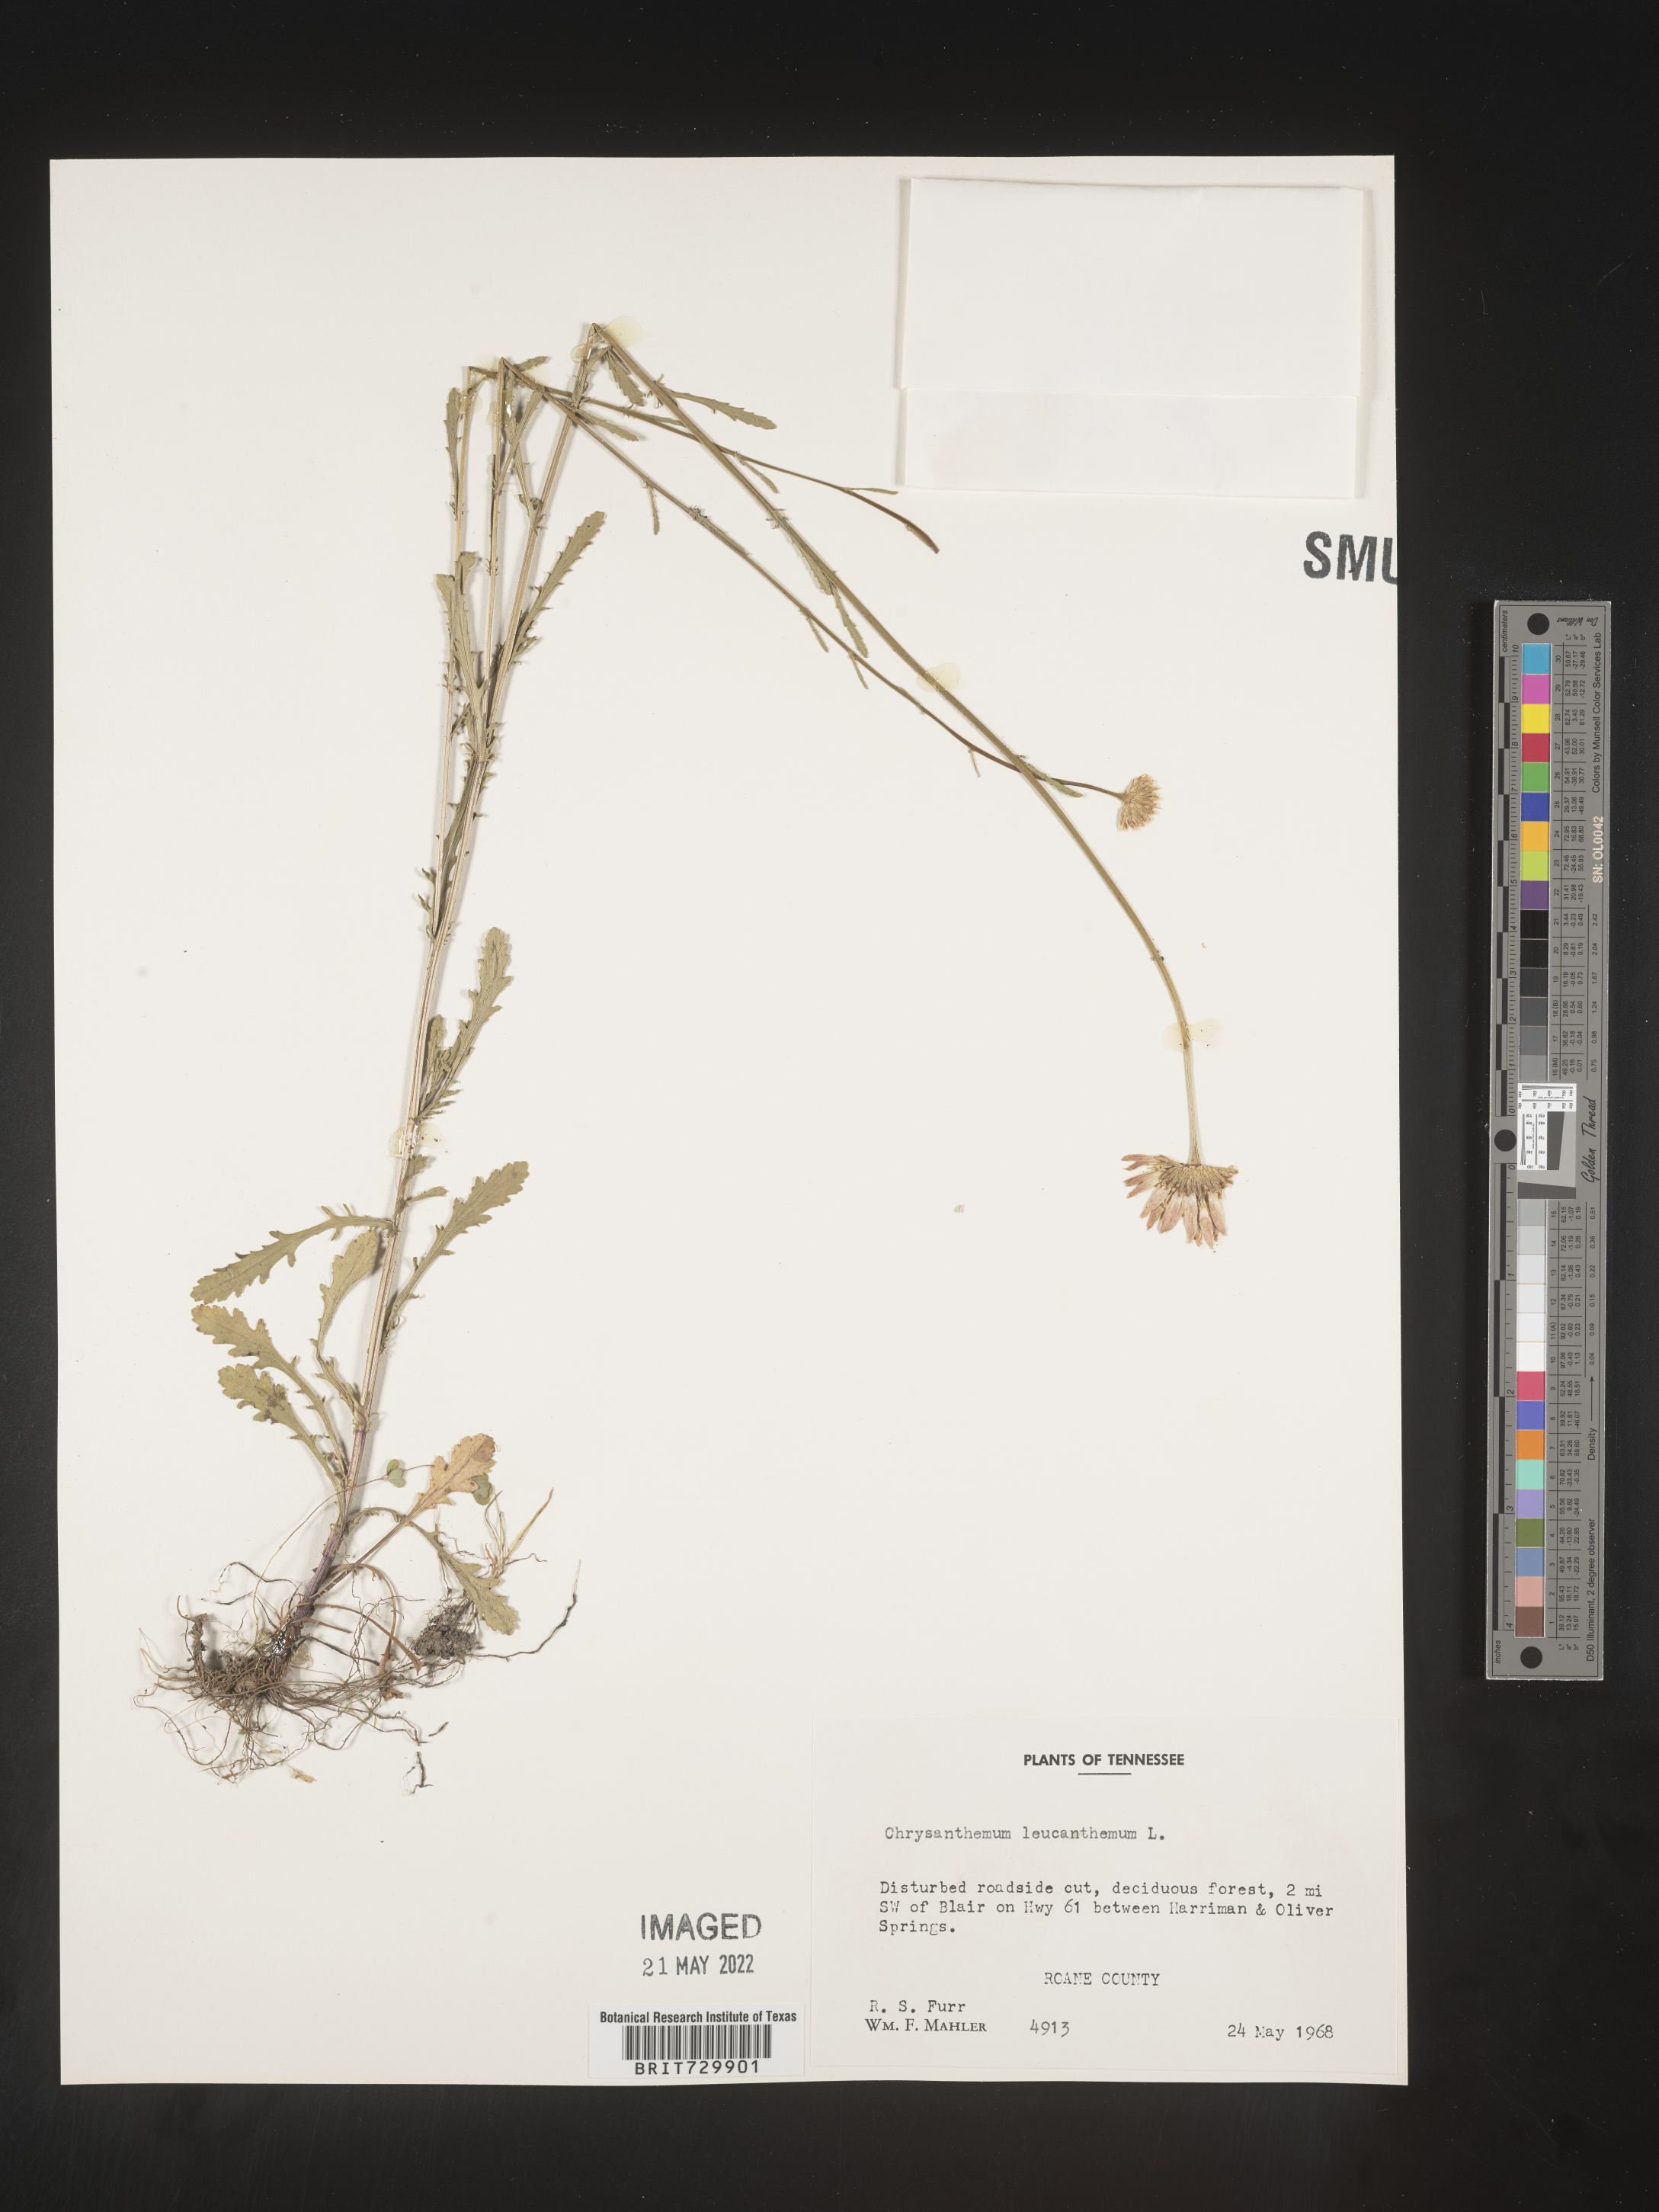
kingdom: Plantae
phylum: Tracheophyta
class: Magnoliopsida
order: Asterales
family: Asteraceae
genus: Leucanthemum
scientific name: Leucanthemum vulgare
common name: Oxeye daisy
